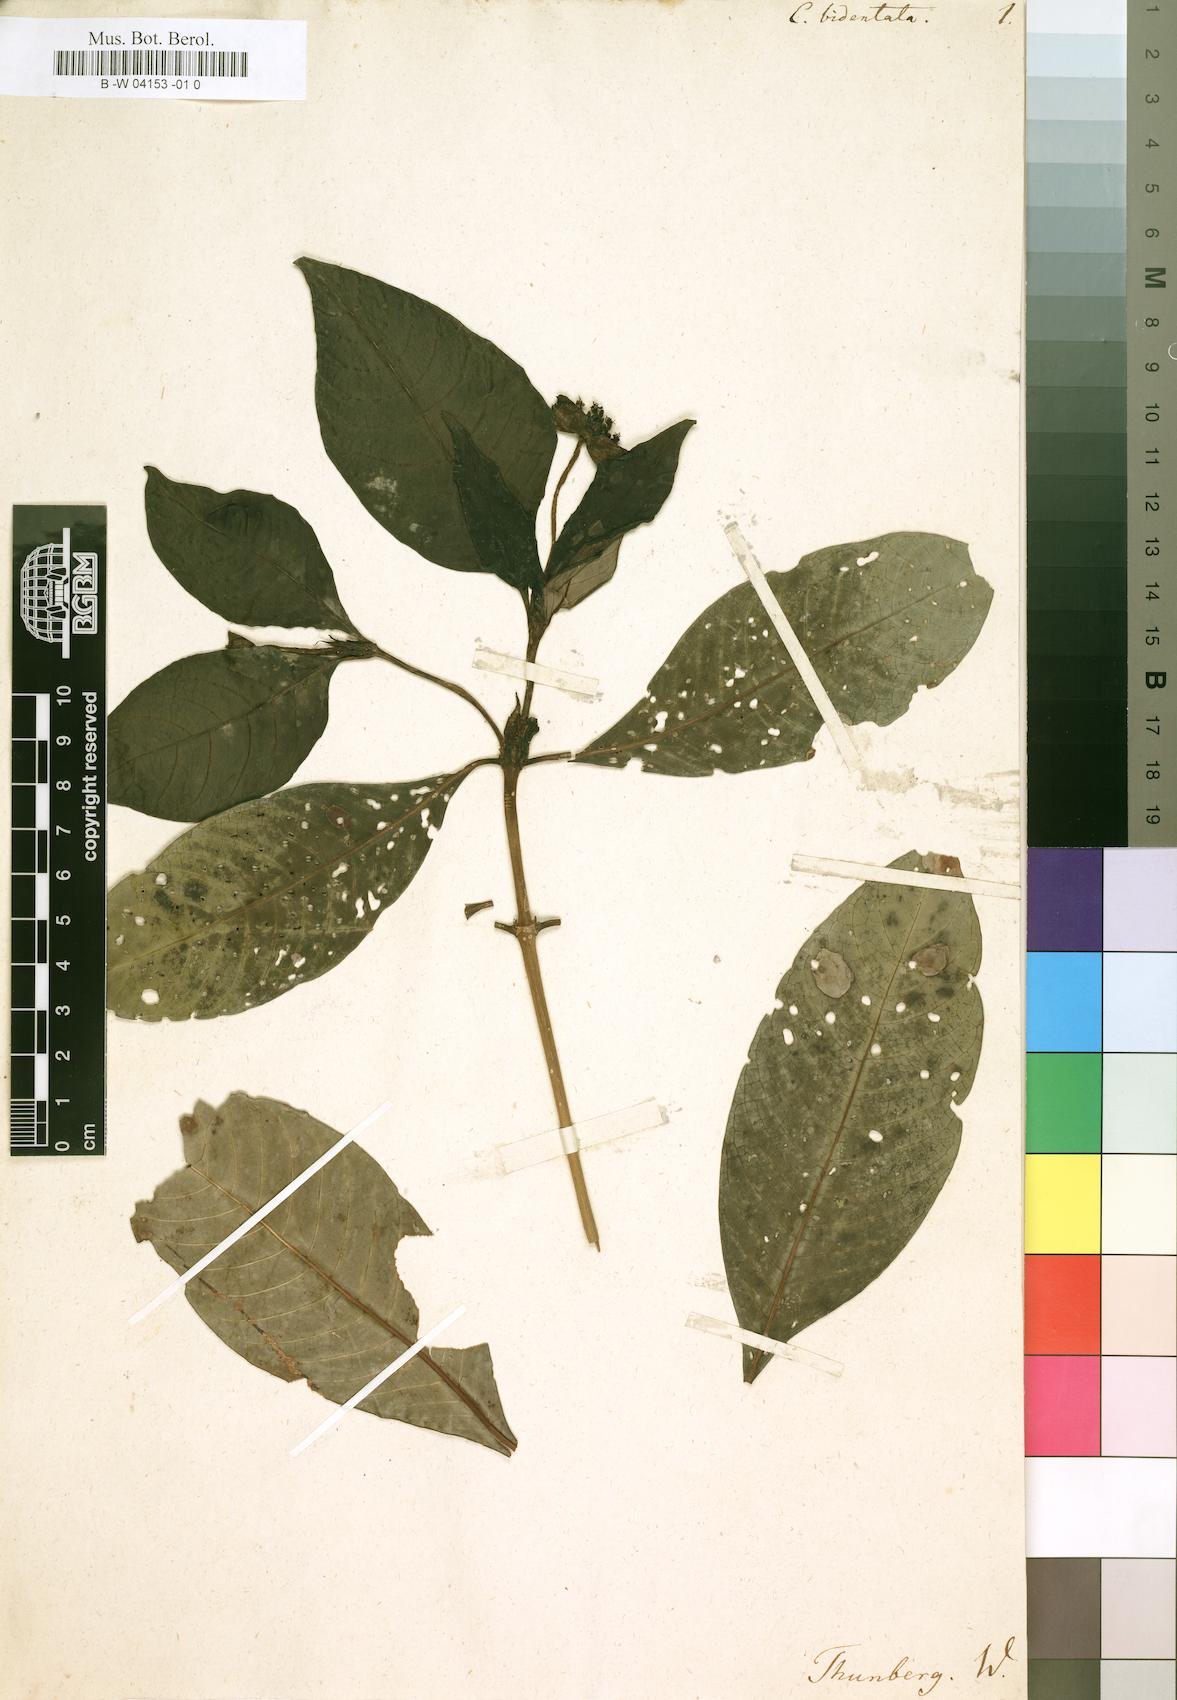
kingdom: Plantae
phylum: Tracheophyta
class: Magnoliopsida
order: Gentianales
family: Rubiaceae
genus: Psychotria
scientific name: Psychotria bidentata
